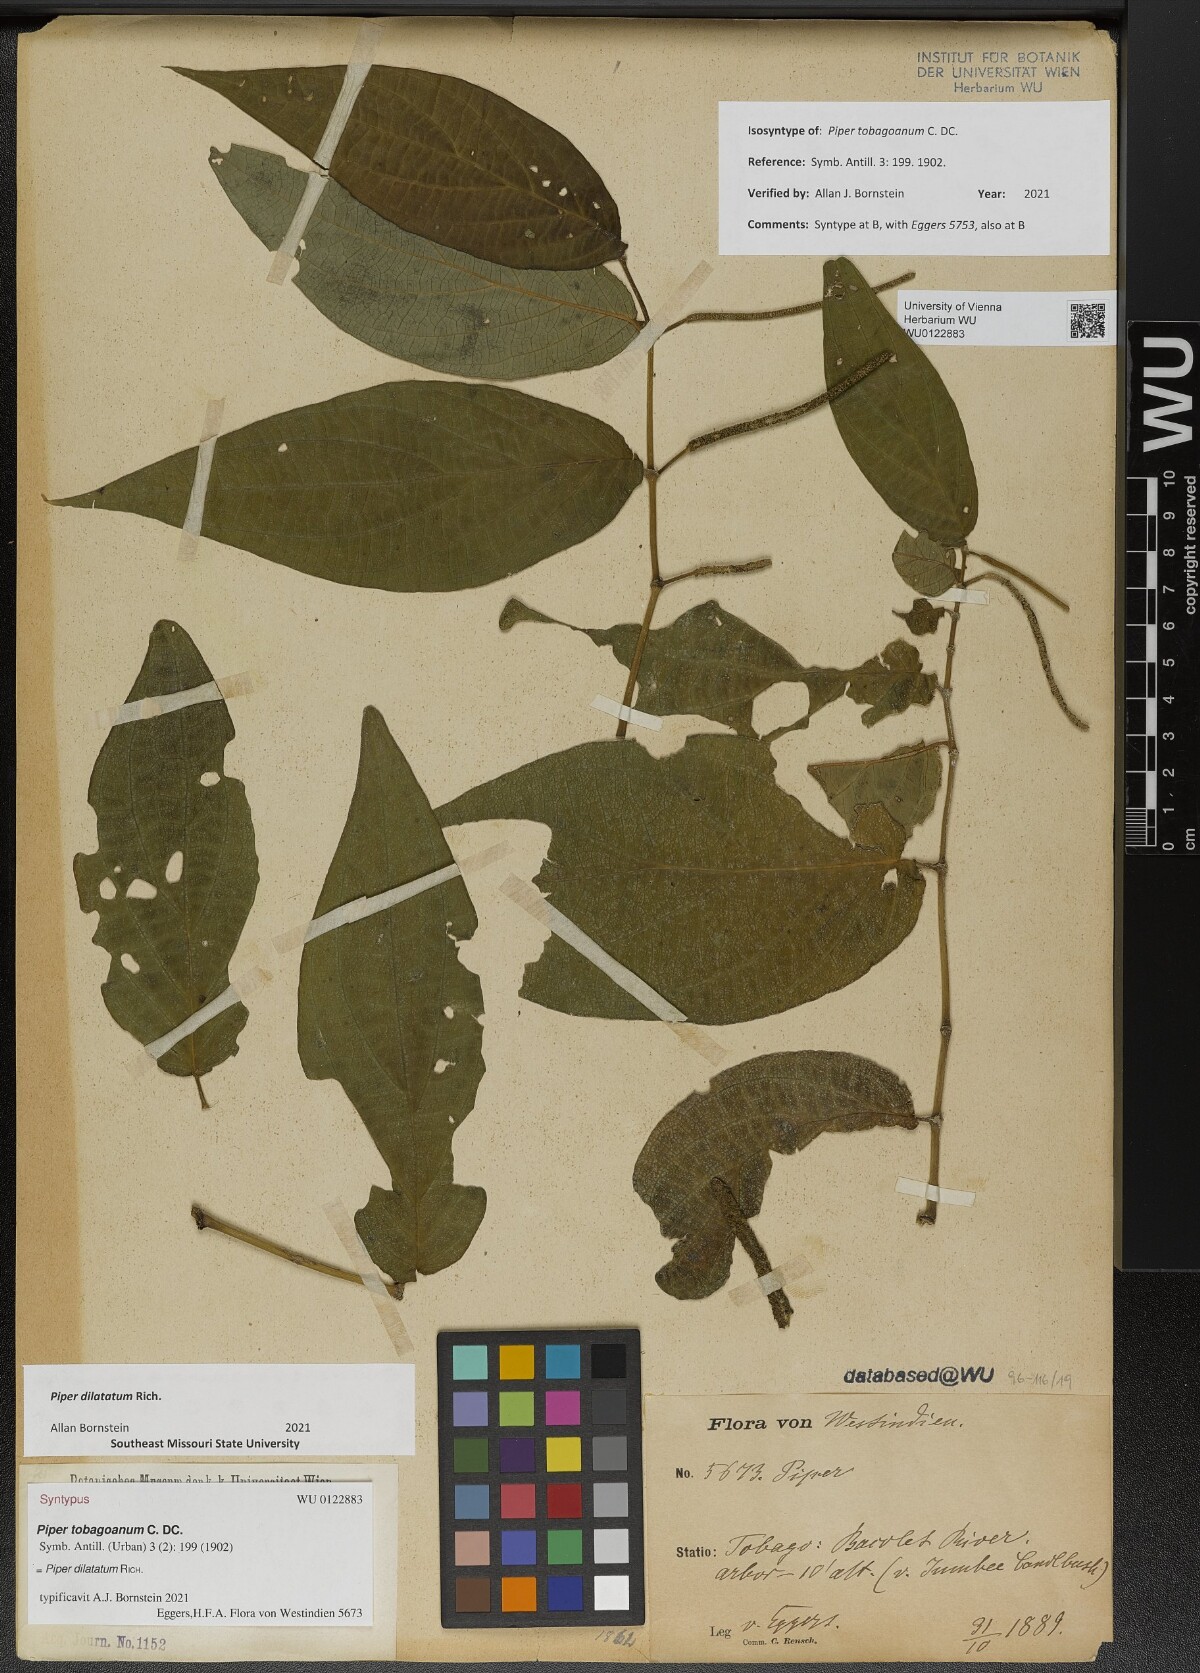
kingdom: Plantae
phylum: Tracheophyta
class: Magnoliopsida
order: Piperales
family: Piperaceae
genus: Piper
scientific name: Piper dilatatum
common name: Higuillo
